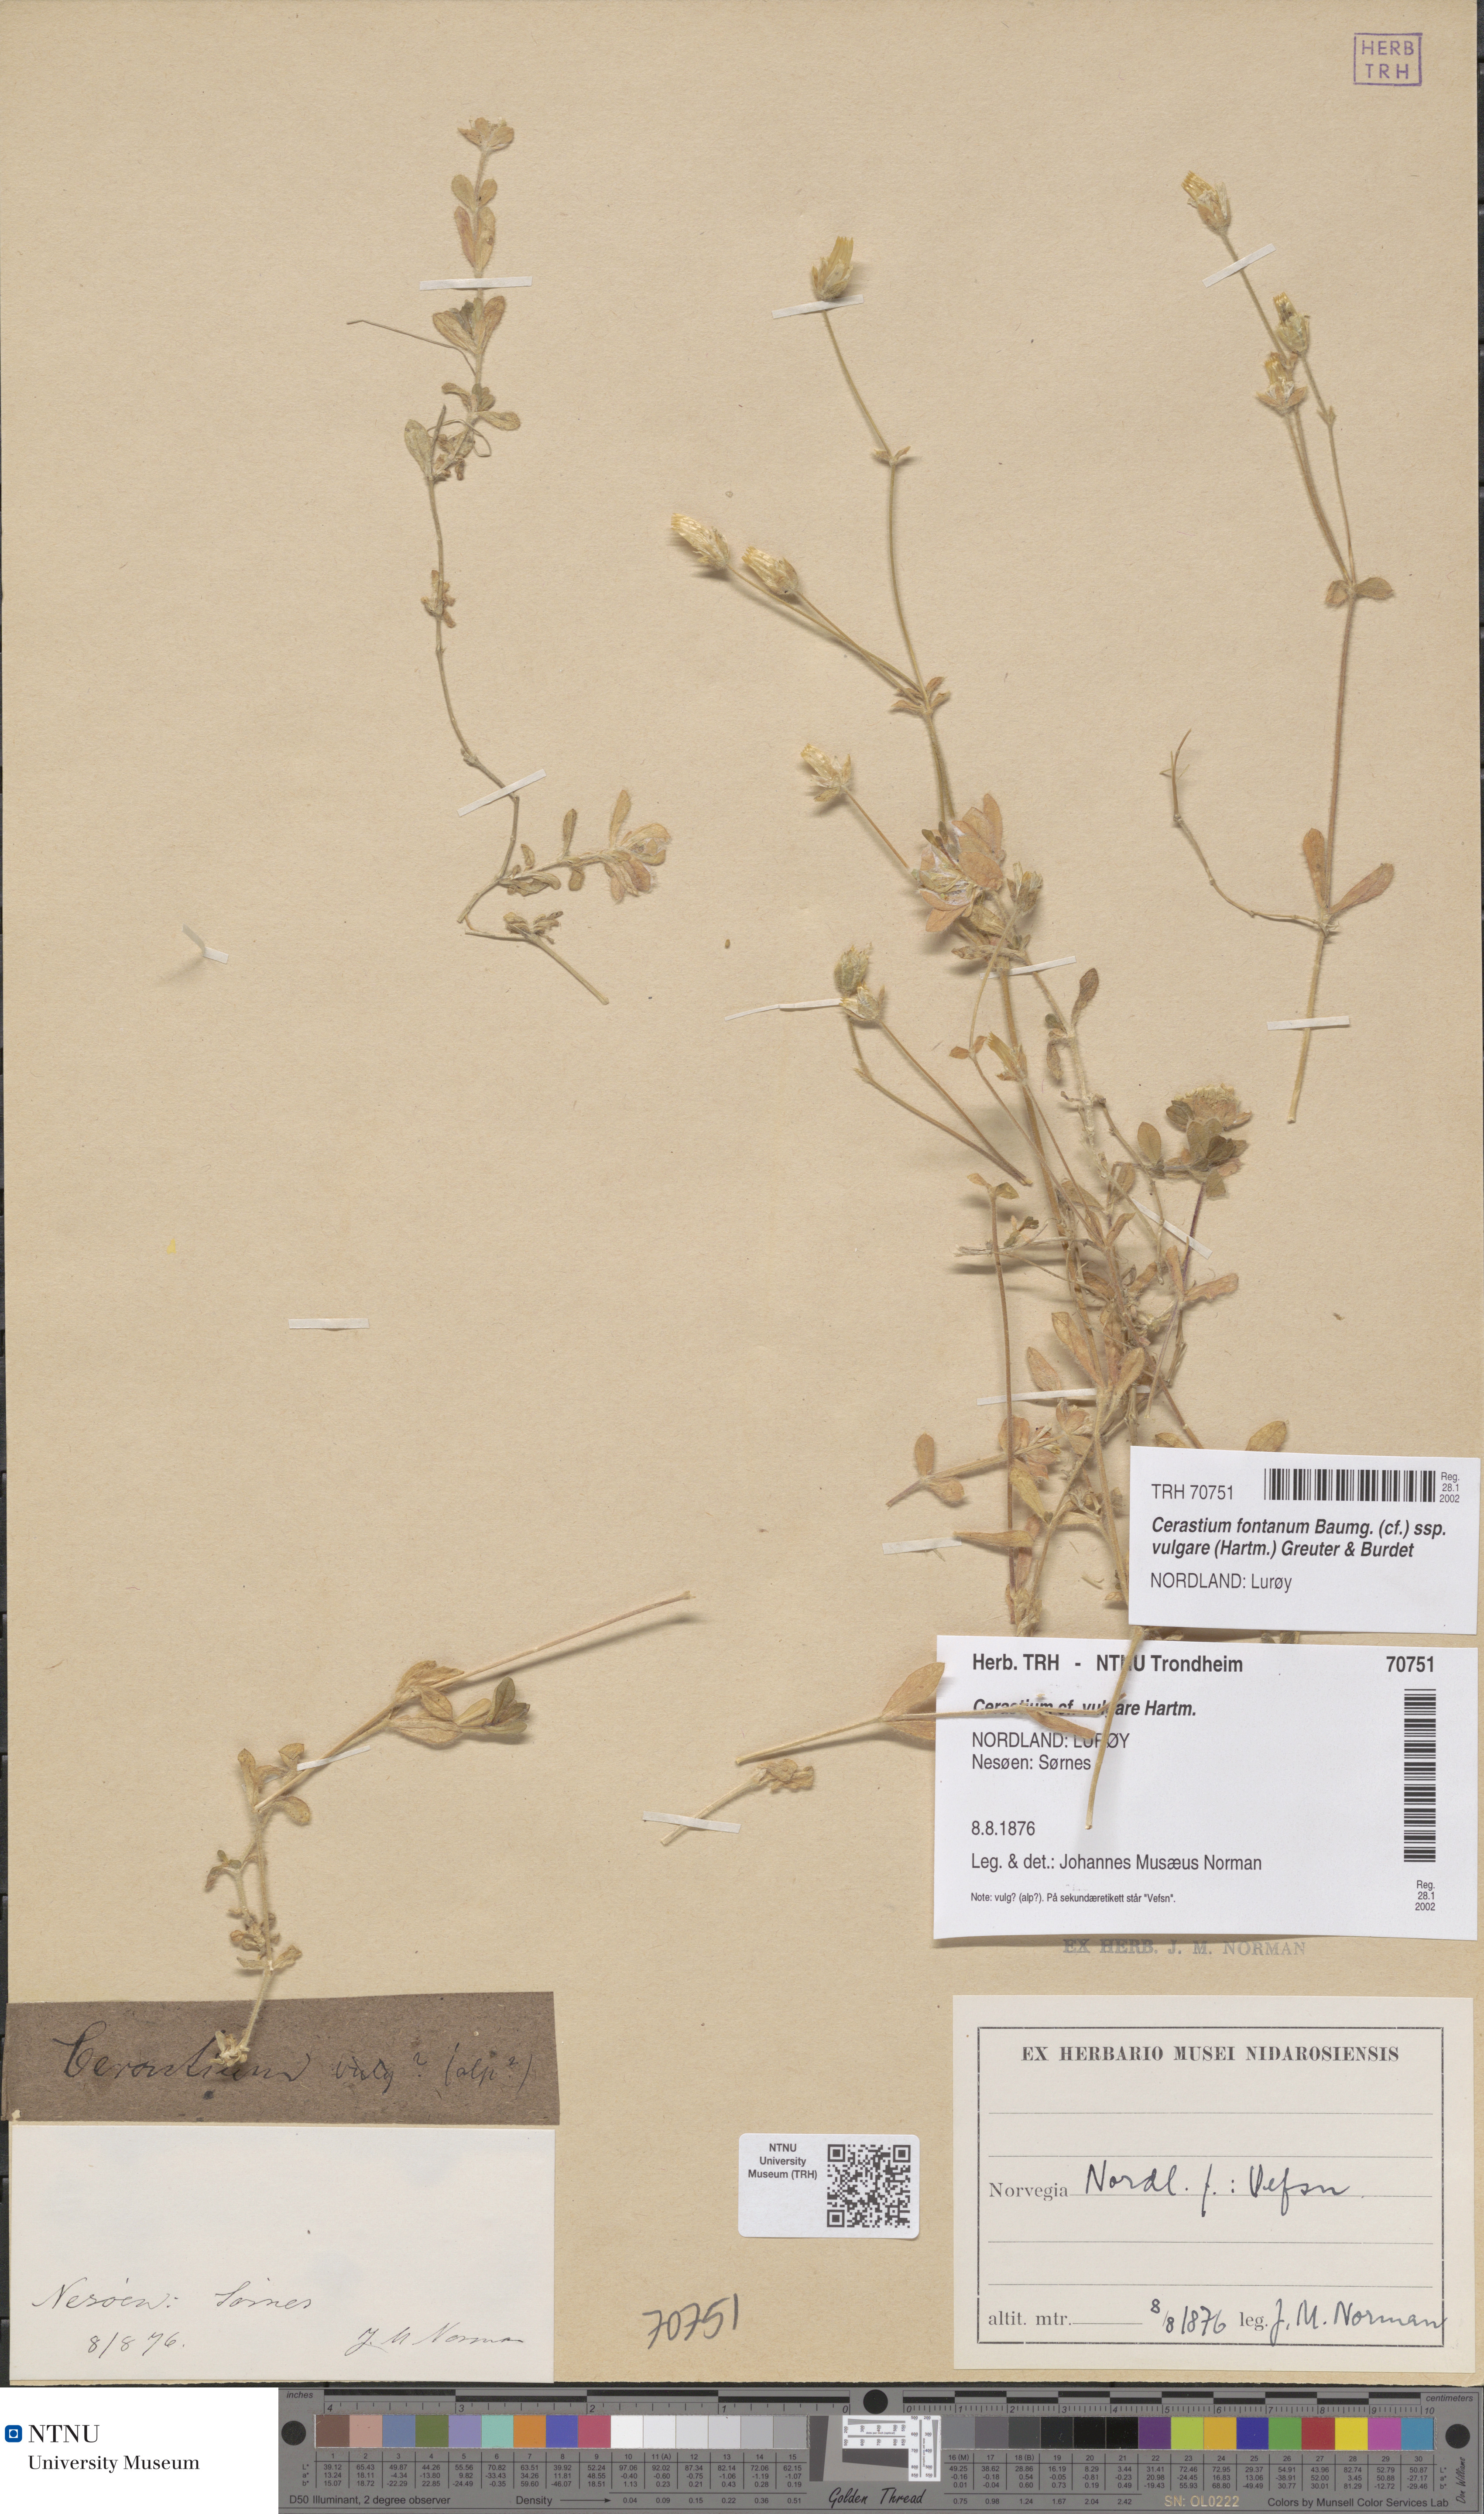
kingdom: Plantae
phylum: Tracheophyta
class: Magnoliopsida
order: Caryophyllales
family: Caryophyllaceae
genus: Cerastium
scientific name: Cerastium holosteoides
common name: Big chickweed
